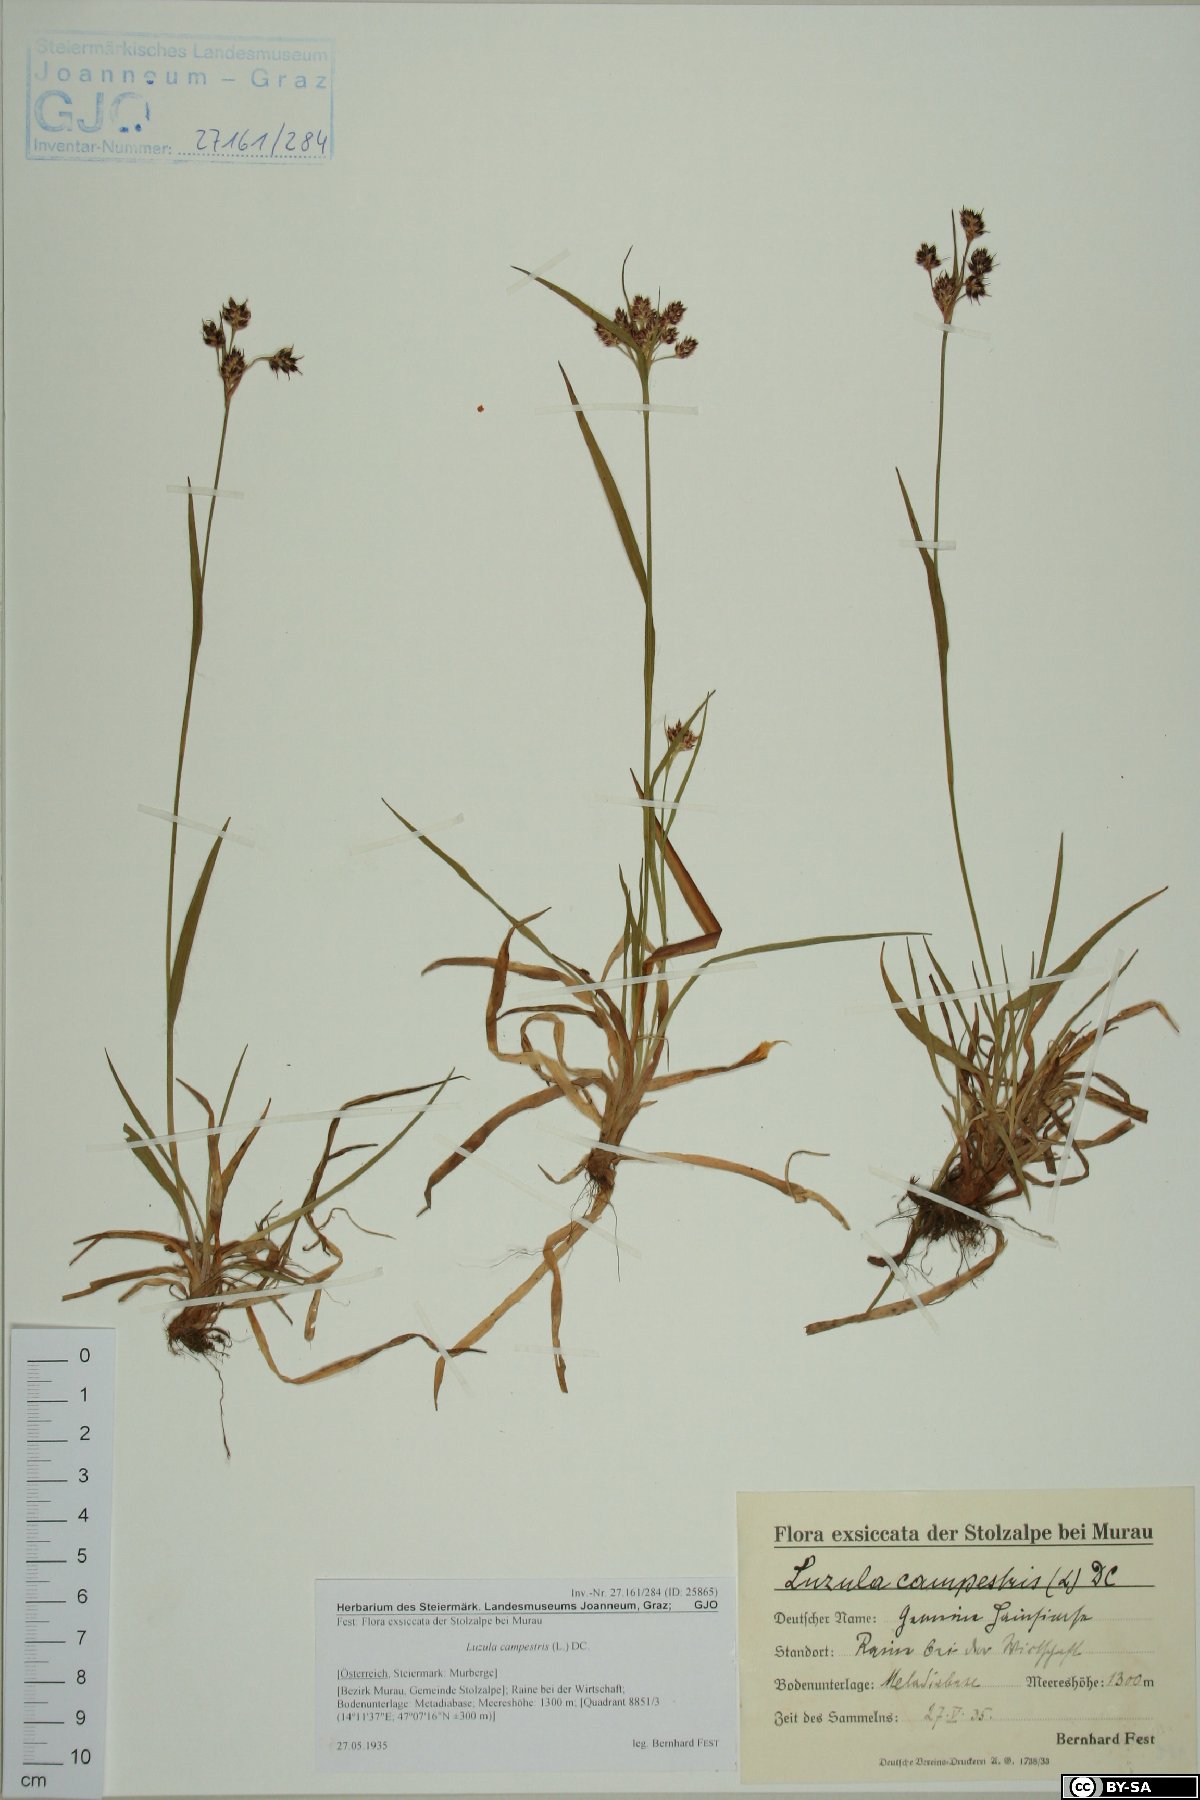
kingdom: Plantae
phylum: Tracheophyta
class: Liliopsida
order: Poales
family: Juncaceae
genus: Luzula
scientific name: Luzula campestris
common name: Field wood-rush
